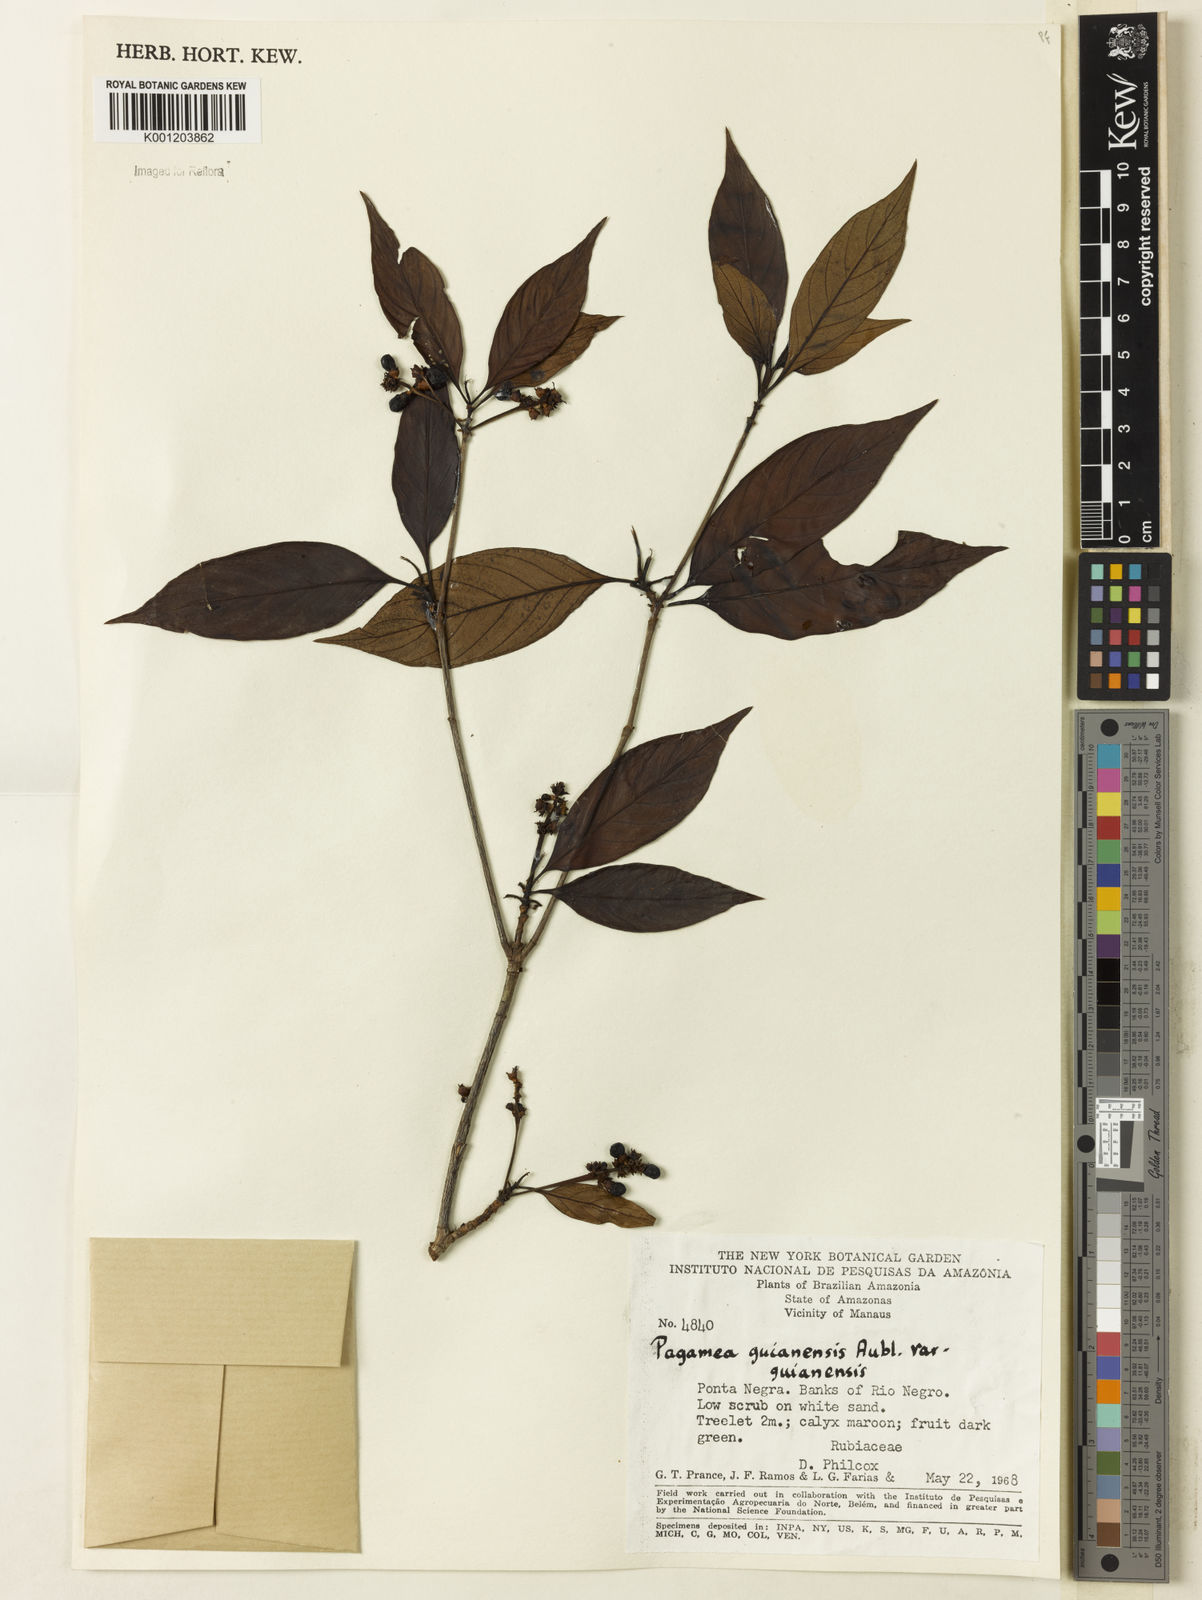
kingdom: Plantae
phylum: Tracheophyta
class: Magnoliopsida
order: Gentianales
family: Rubiaceae
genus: Pagamea
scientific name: Pagamea guianensis
